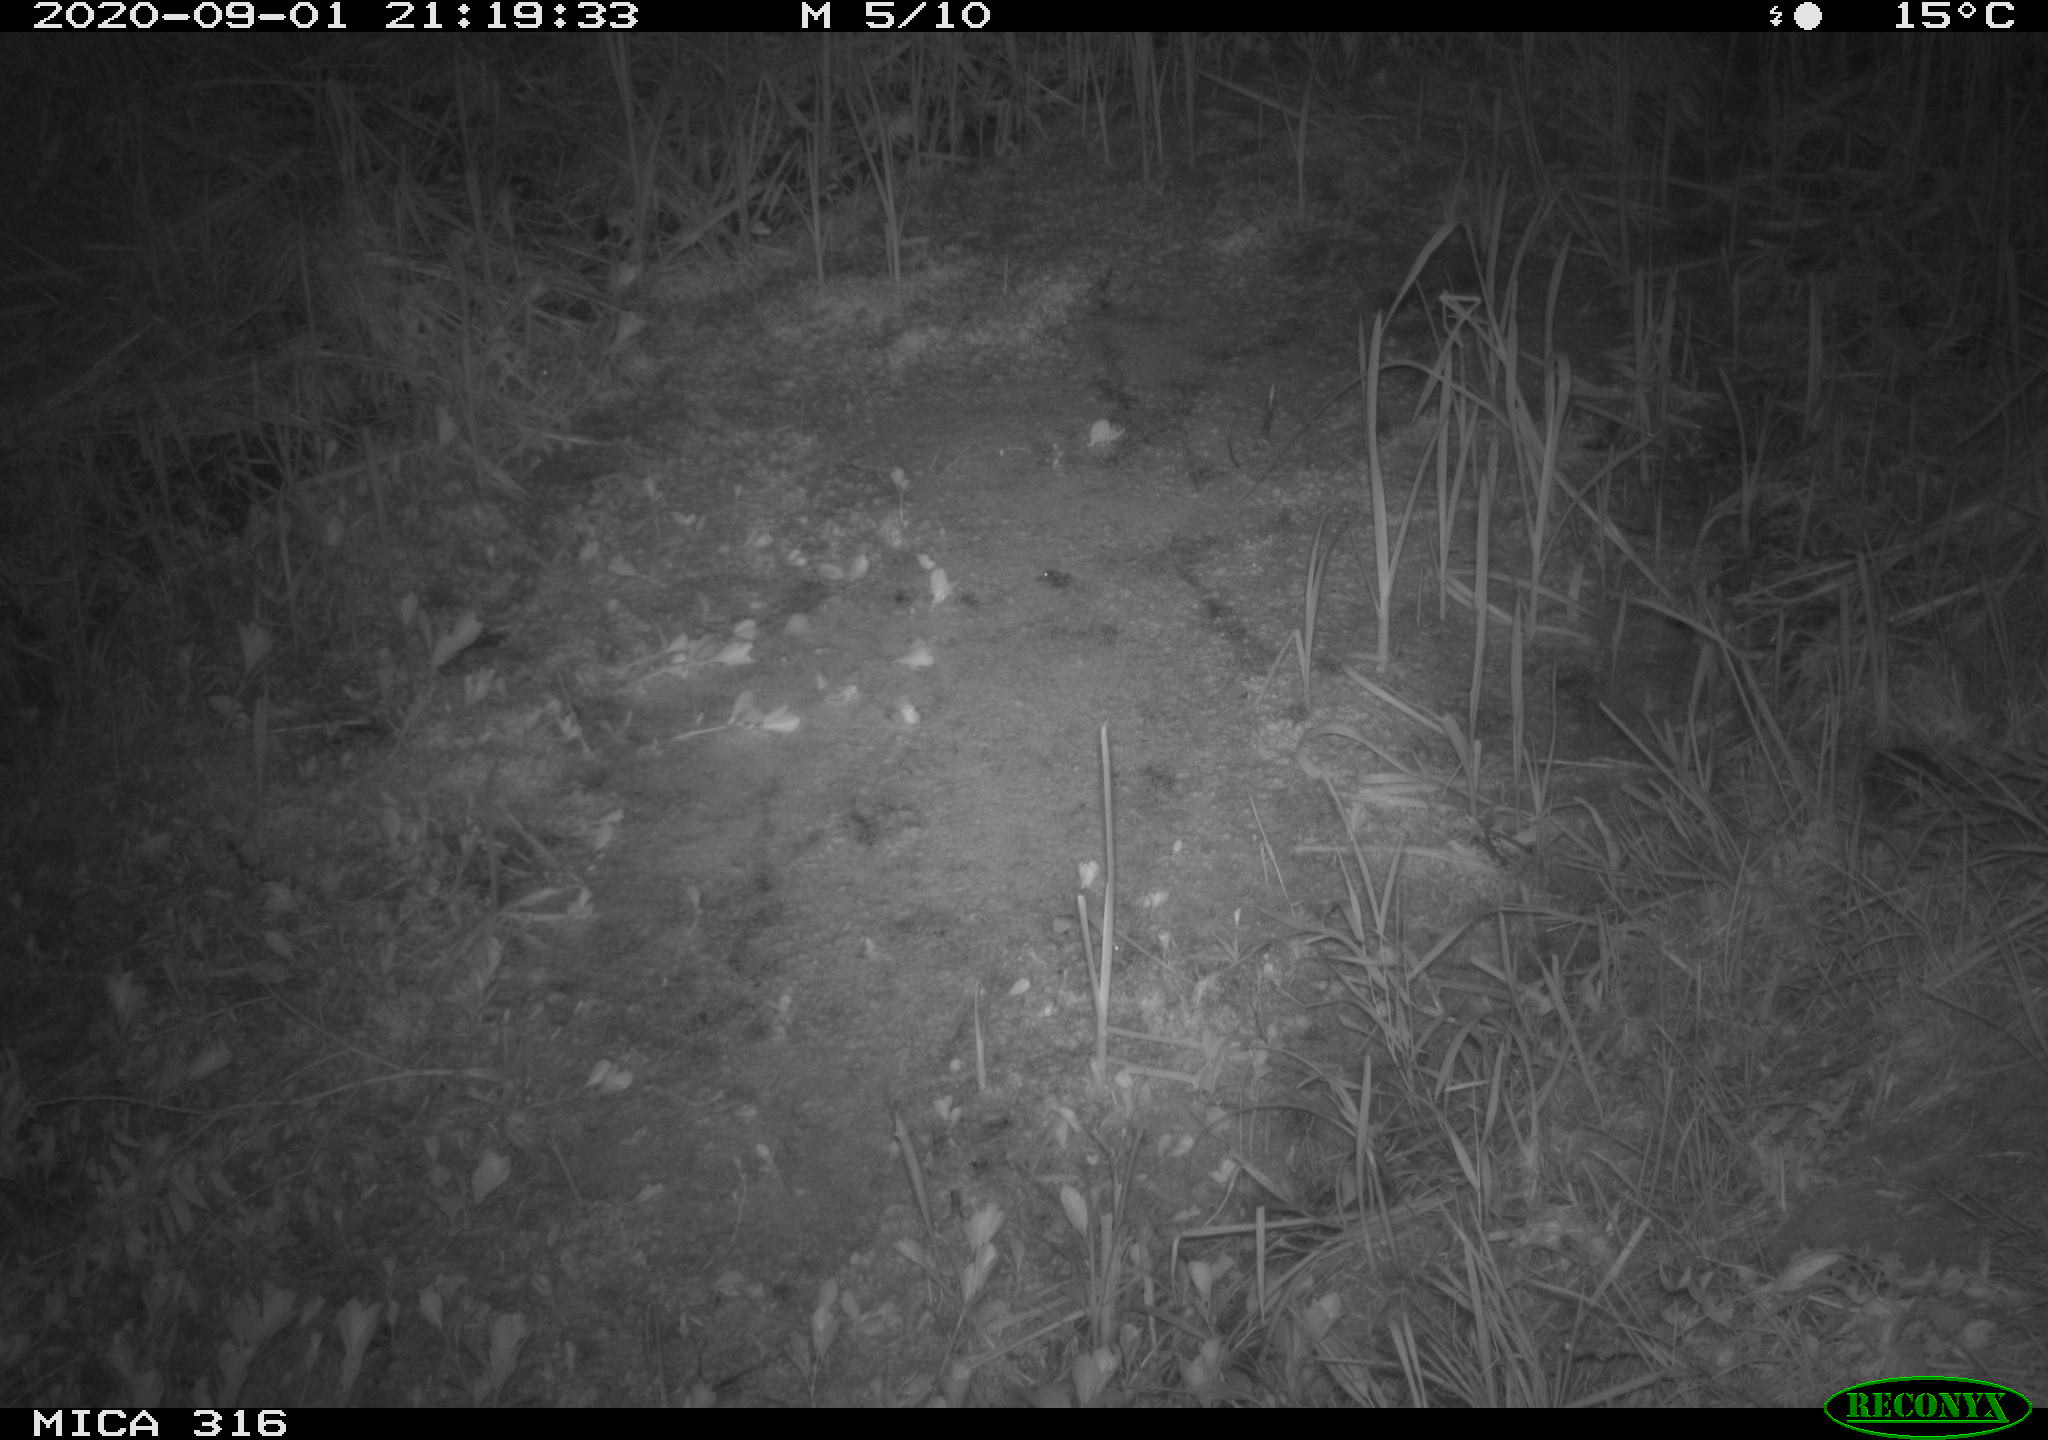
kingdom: Animalia
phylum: Chordata
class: Mammalia
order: Rodentia
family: Muridae
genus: Rattus
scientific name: Rattus norvegicus
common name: Brown rat
